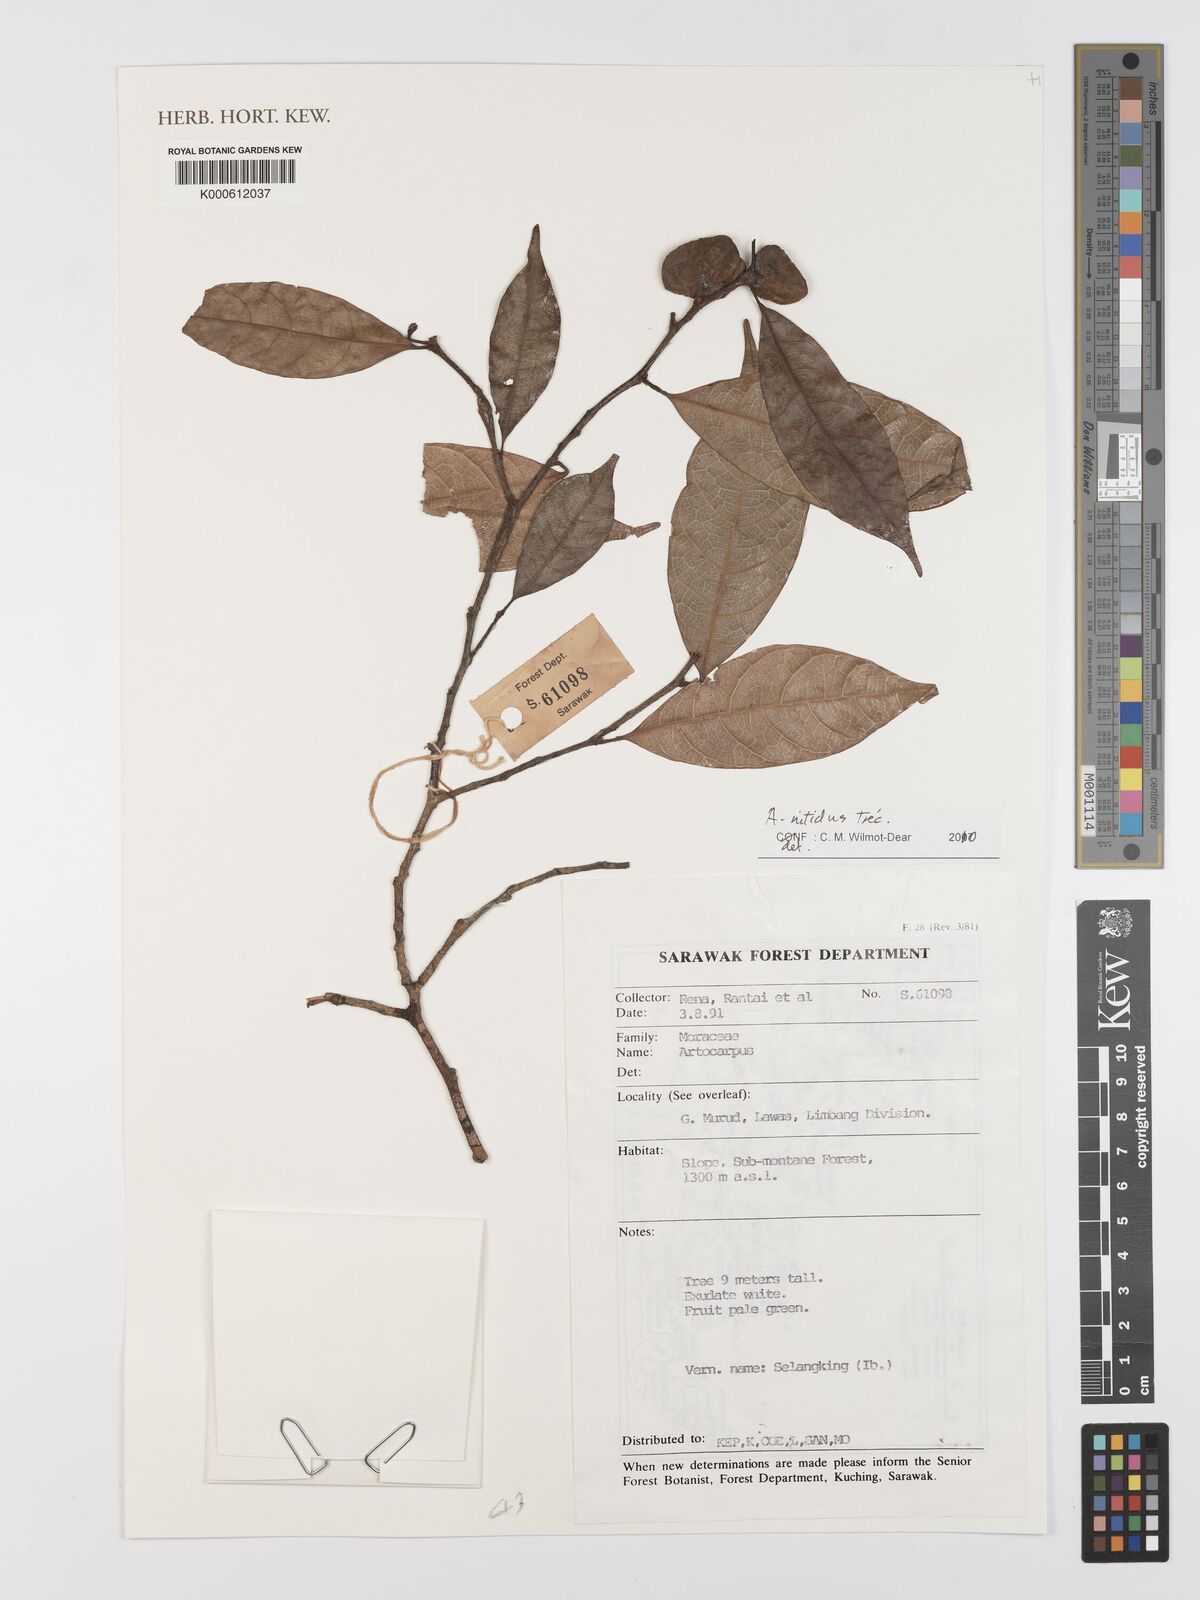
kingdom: Plantae
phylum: Tracheophyta
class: Magnoliopsida
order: Rosales
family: Moraceae
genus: Artocarpus
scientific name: Artocarpus lamellosus
